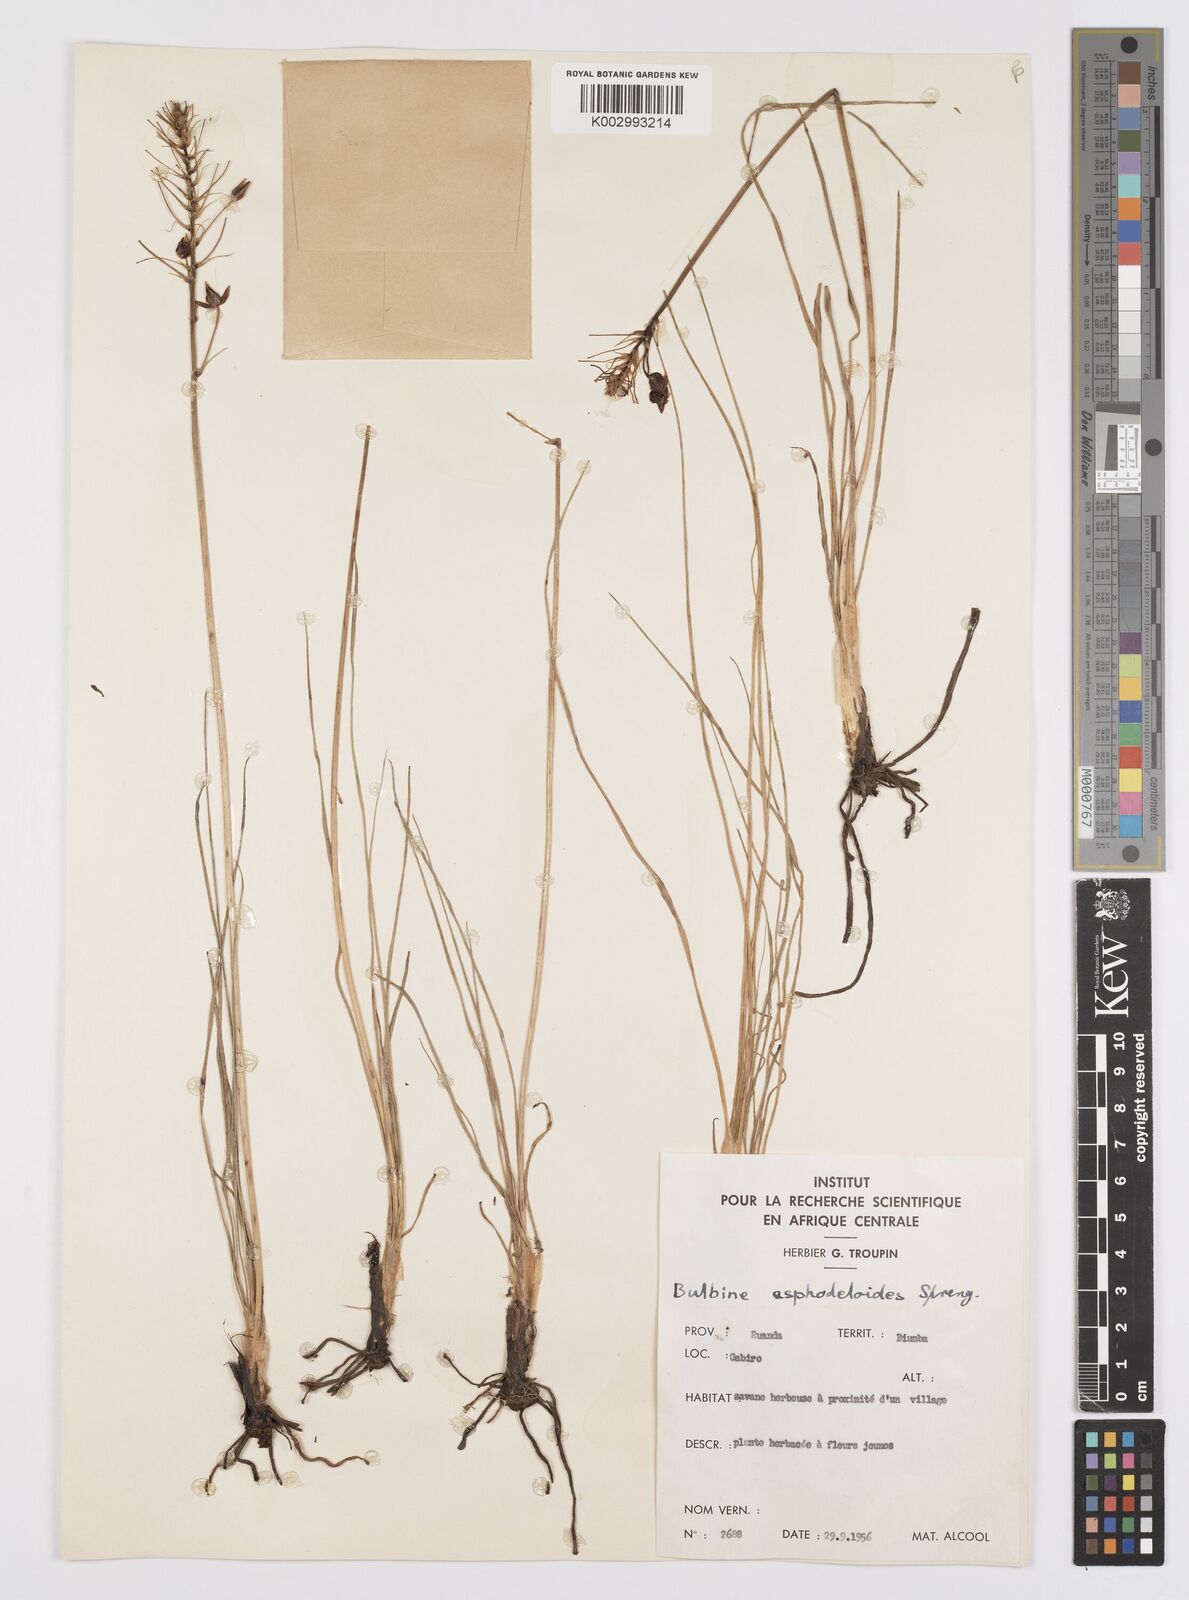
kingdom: Plantae
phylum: Tracheophyta
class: Liliopsida
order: Asparagales
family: Asphodelaceae
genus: Bulbine
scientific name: Bulbine abyssinica
